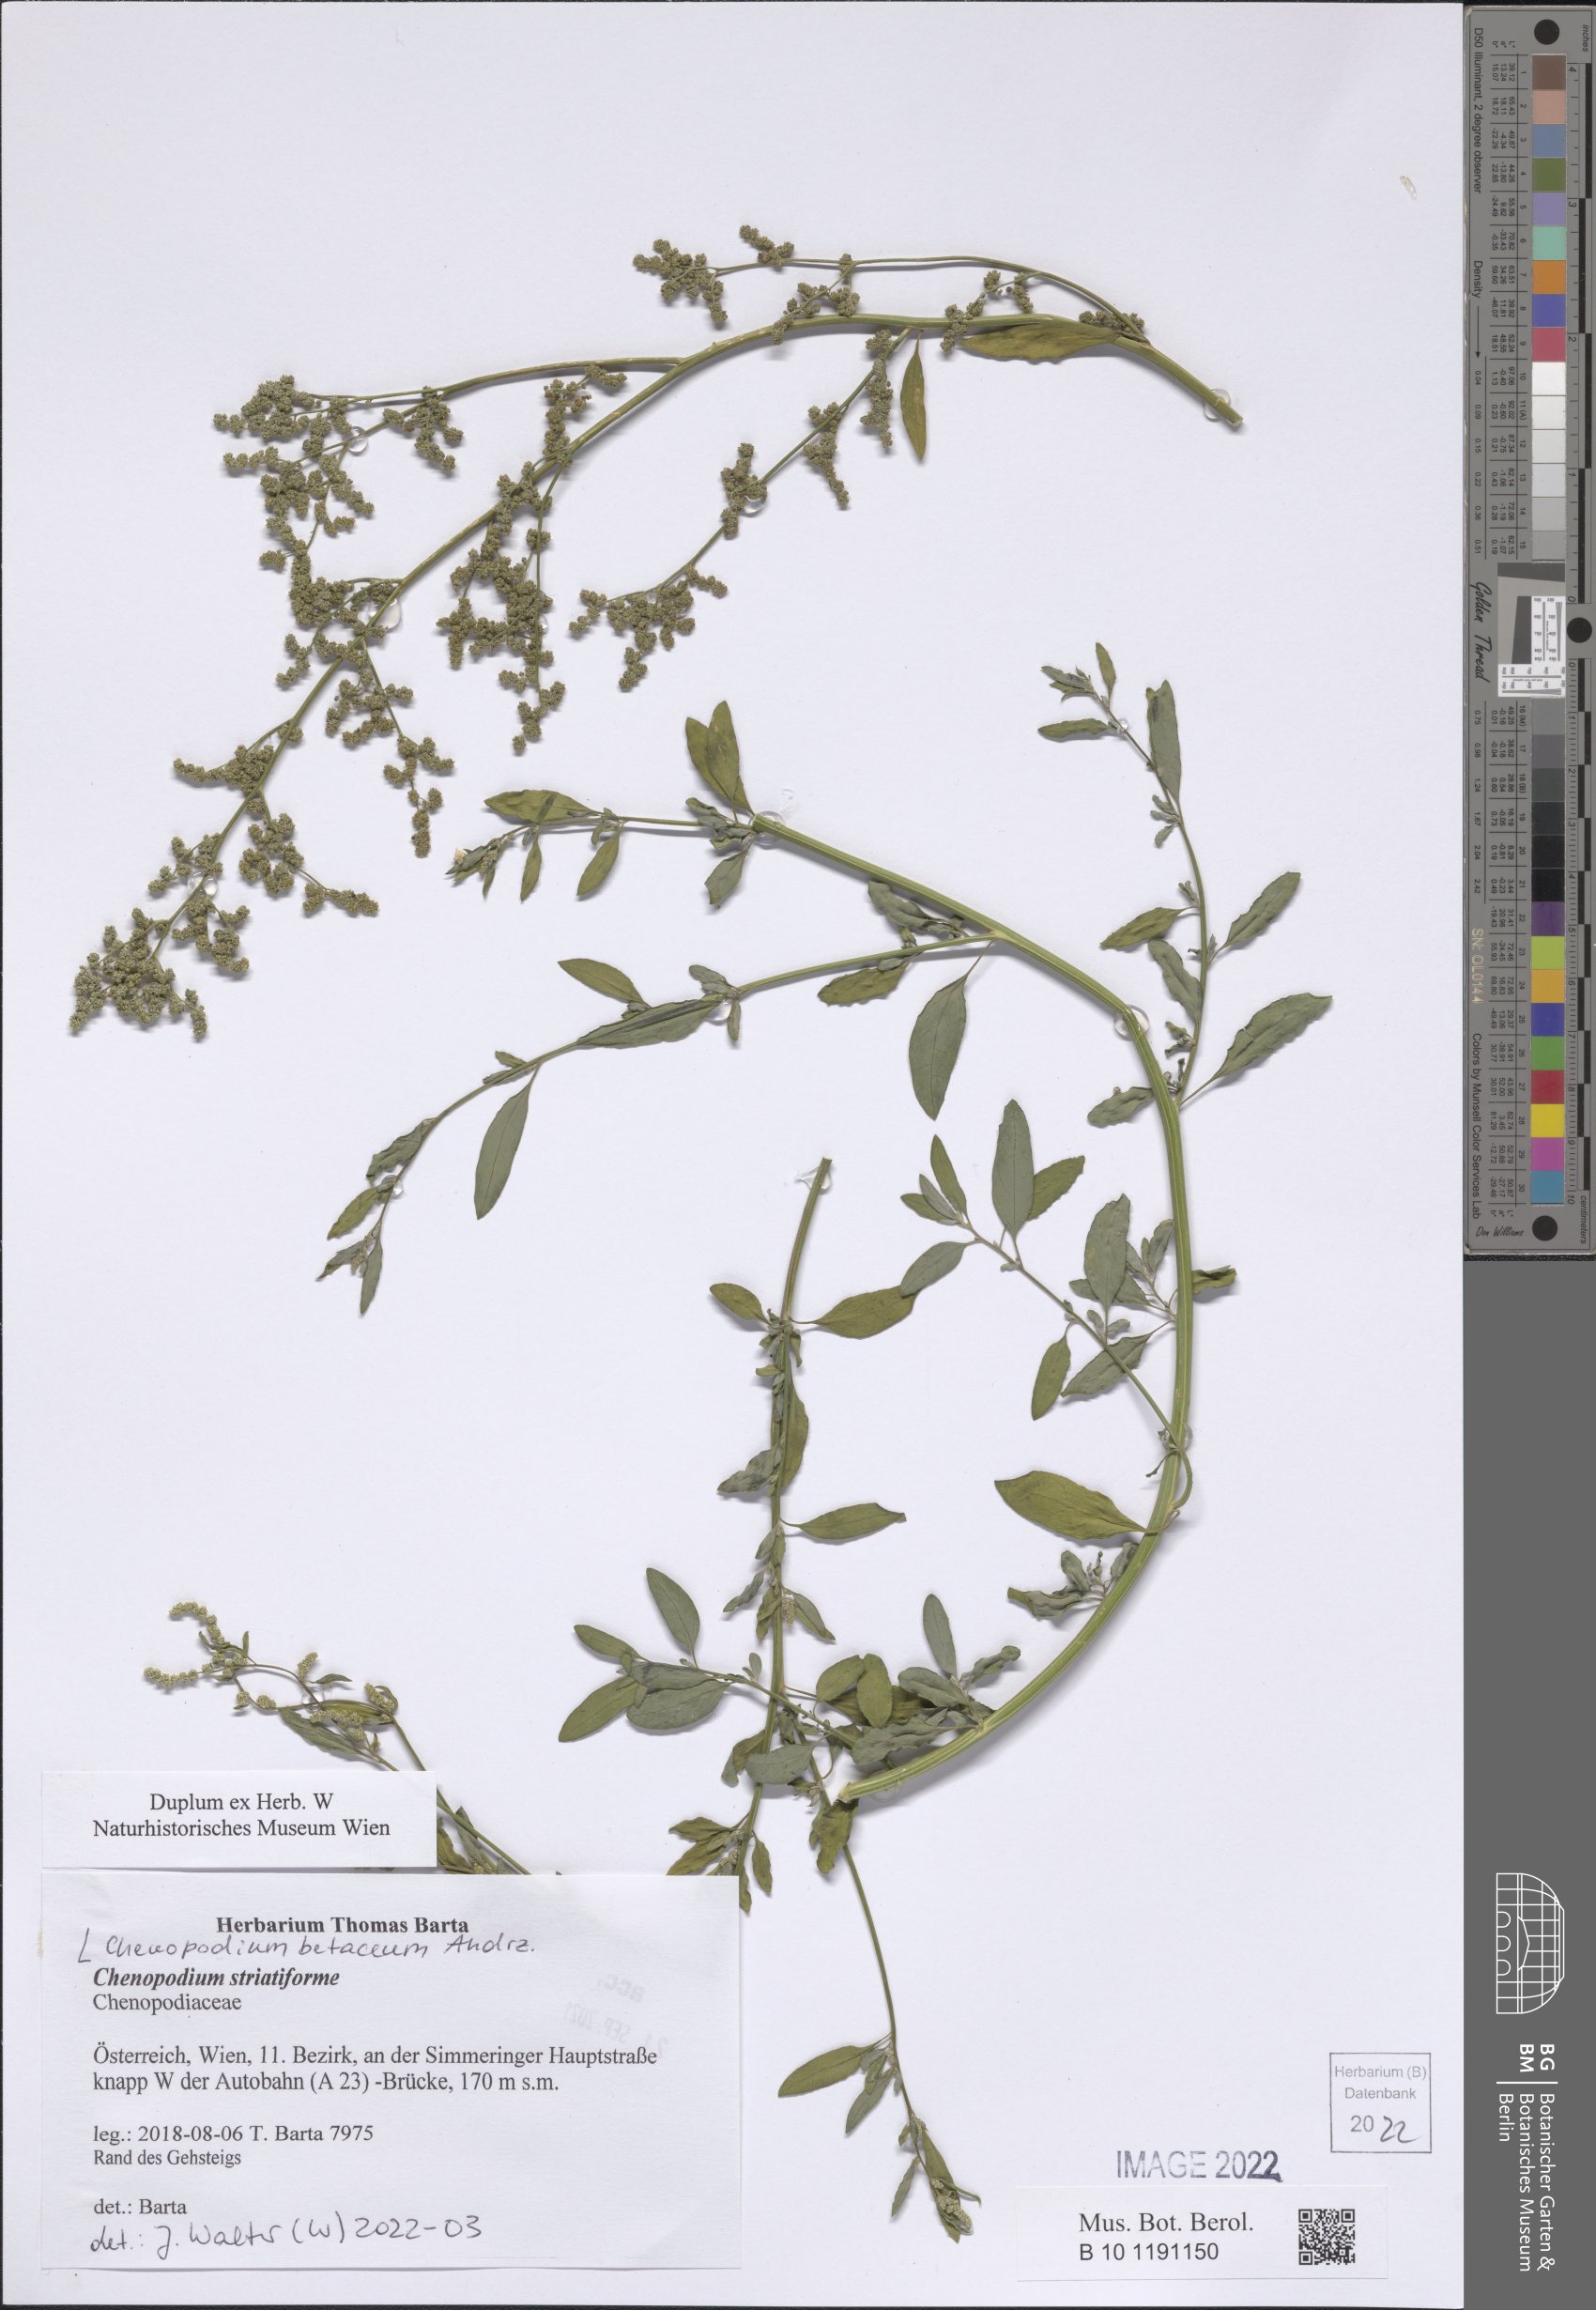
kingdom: Plantae
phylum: Tracheophyta
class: Magnoliopsida
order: Caryophyllales
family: Amaranthaceae
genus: Chenopodium
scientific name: Chenopodium betaceum
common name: Striped goosefoot
